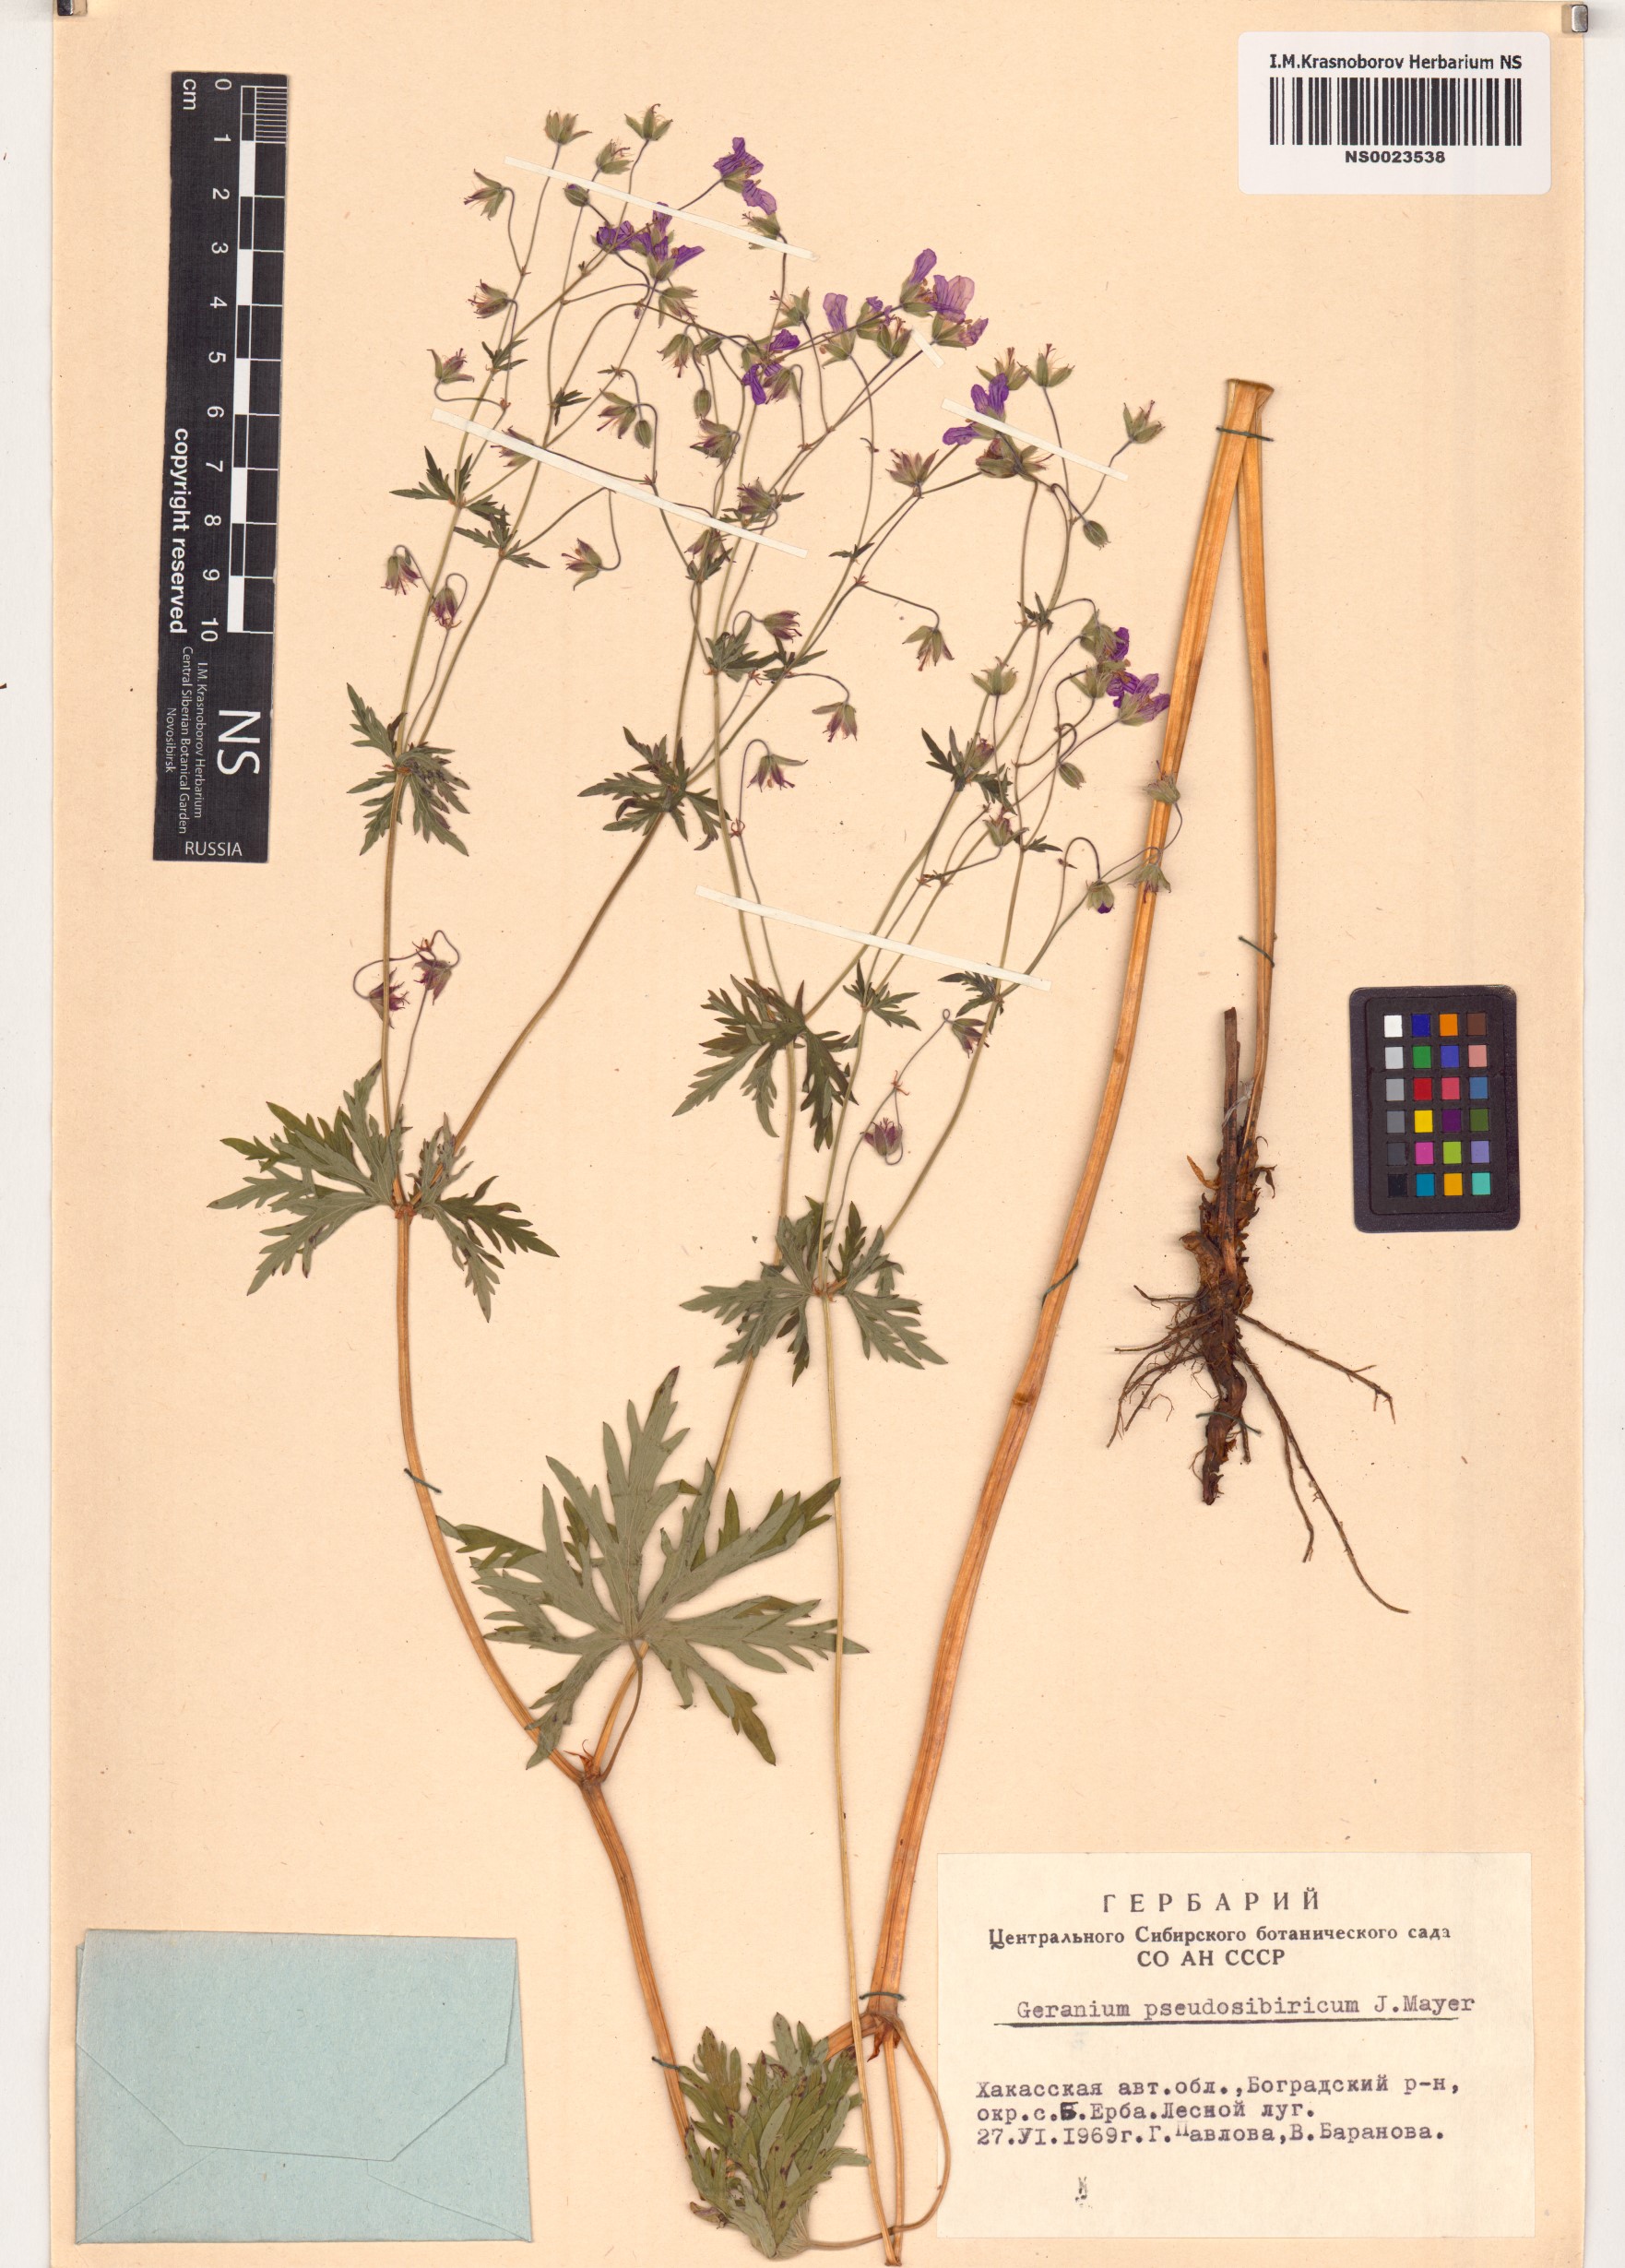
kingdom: Plantae
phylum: Tracheophyta
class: Magnoliopsida
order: Geraniales
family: Geraniaceae
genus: Geranium
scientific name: Geranium pseudosibiricum
